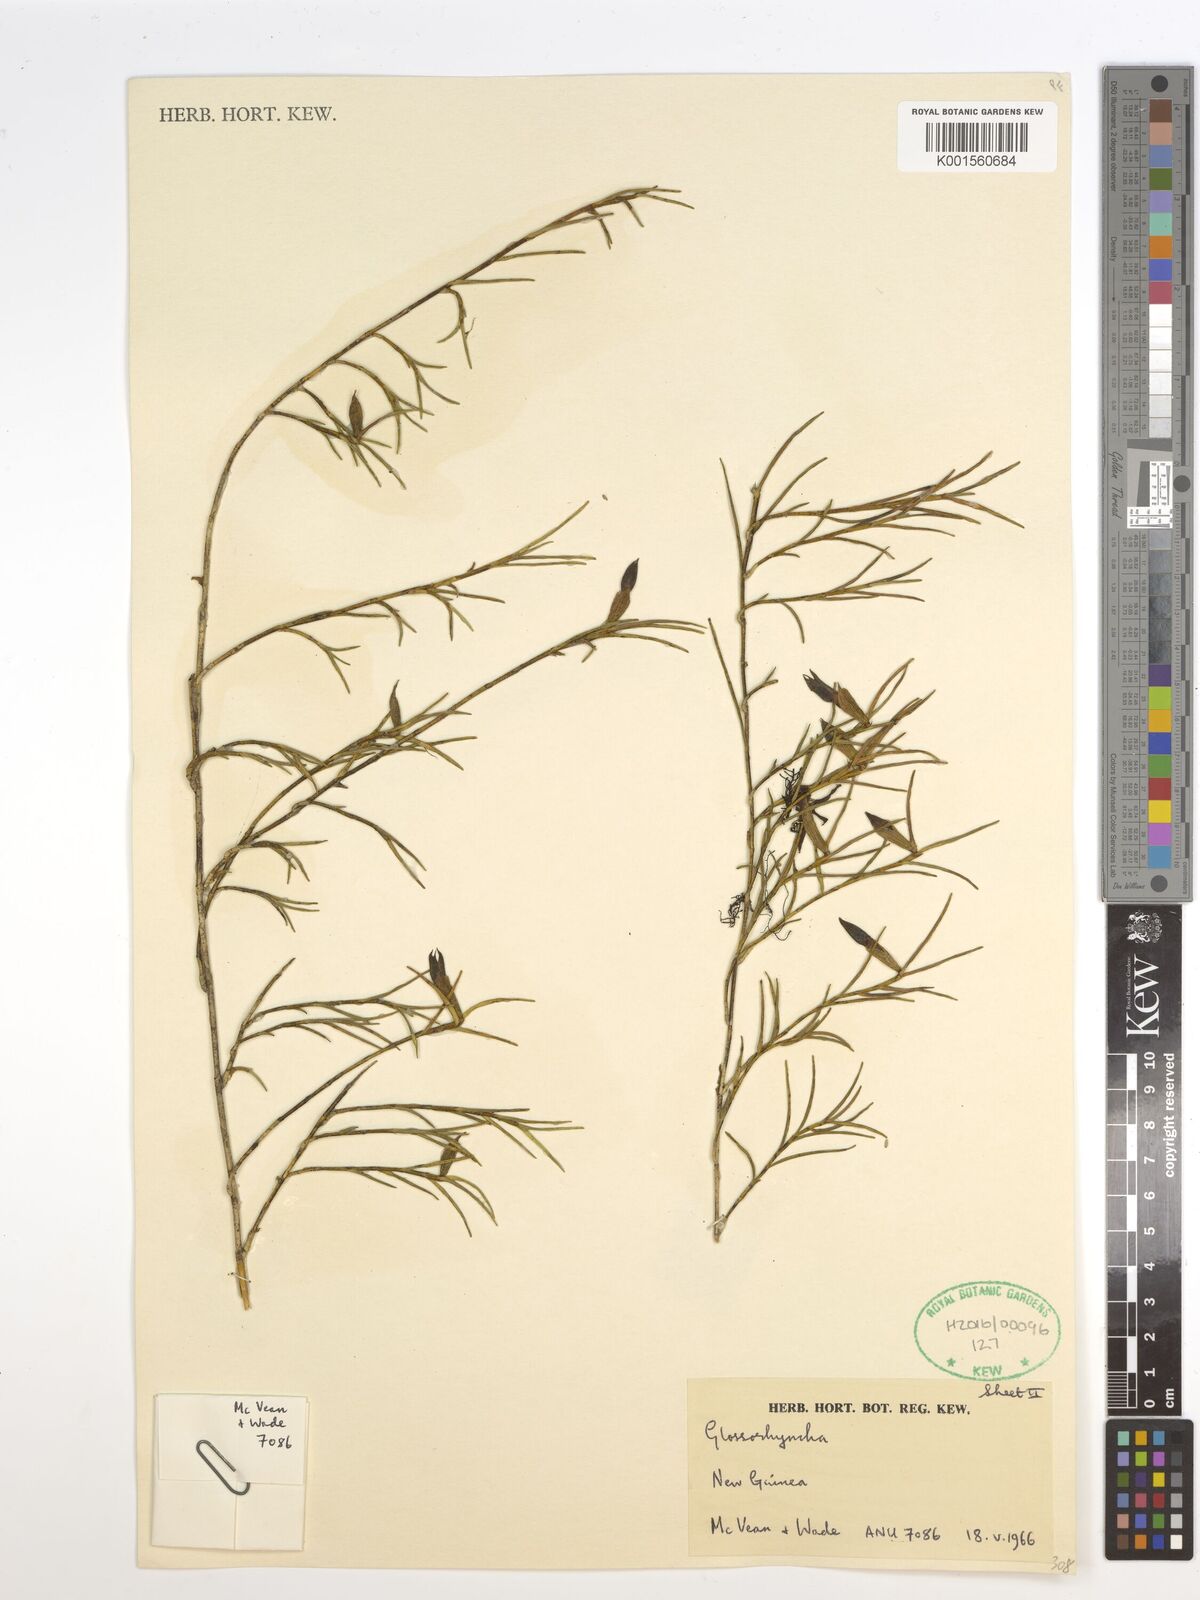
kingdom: Plantae
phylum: Tracheophyta
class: Liliopsida
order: Asparagales
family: Orchidaceae
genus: Glomera
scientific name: Glomera
